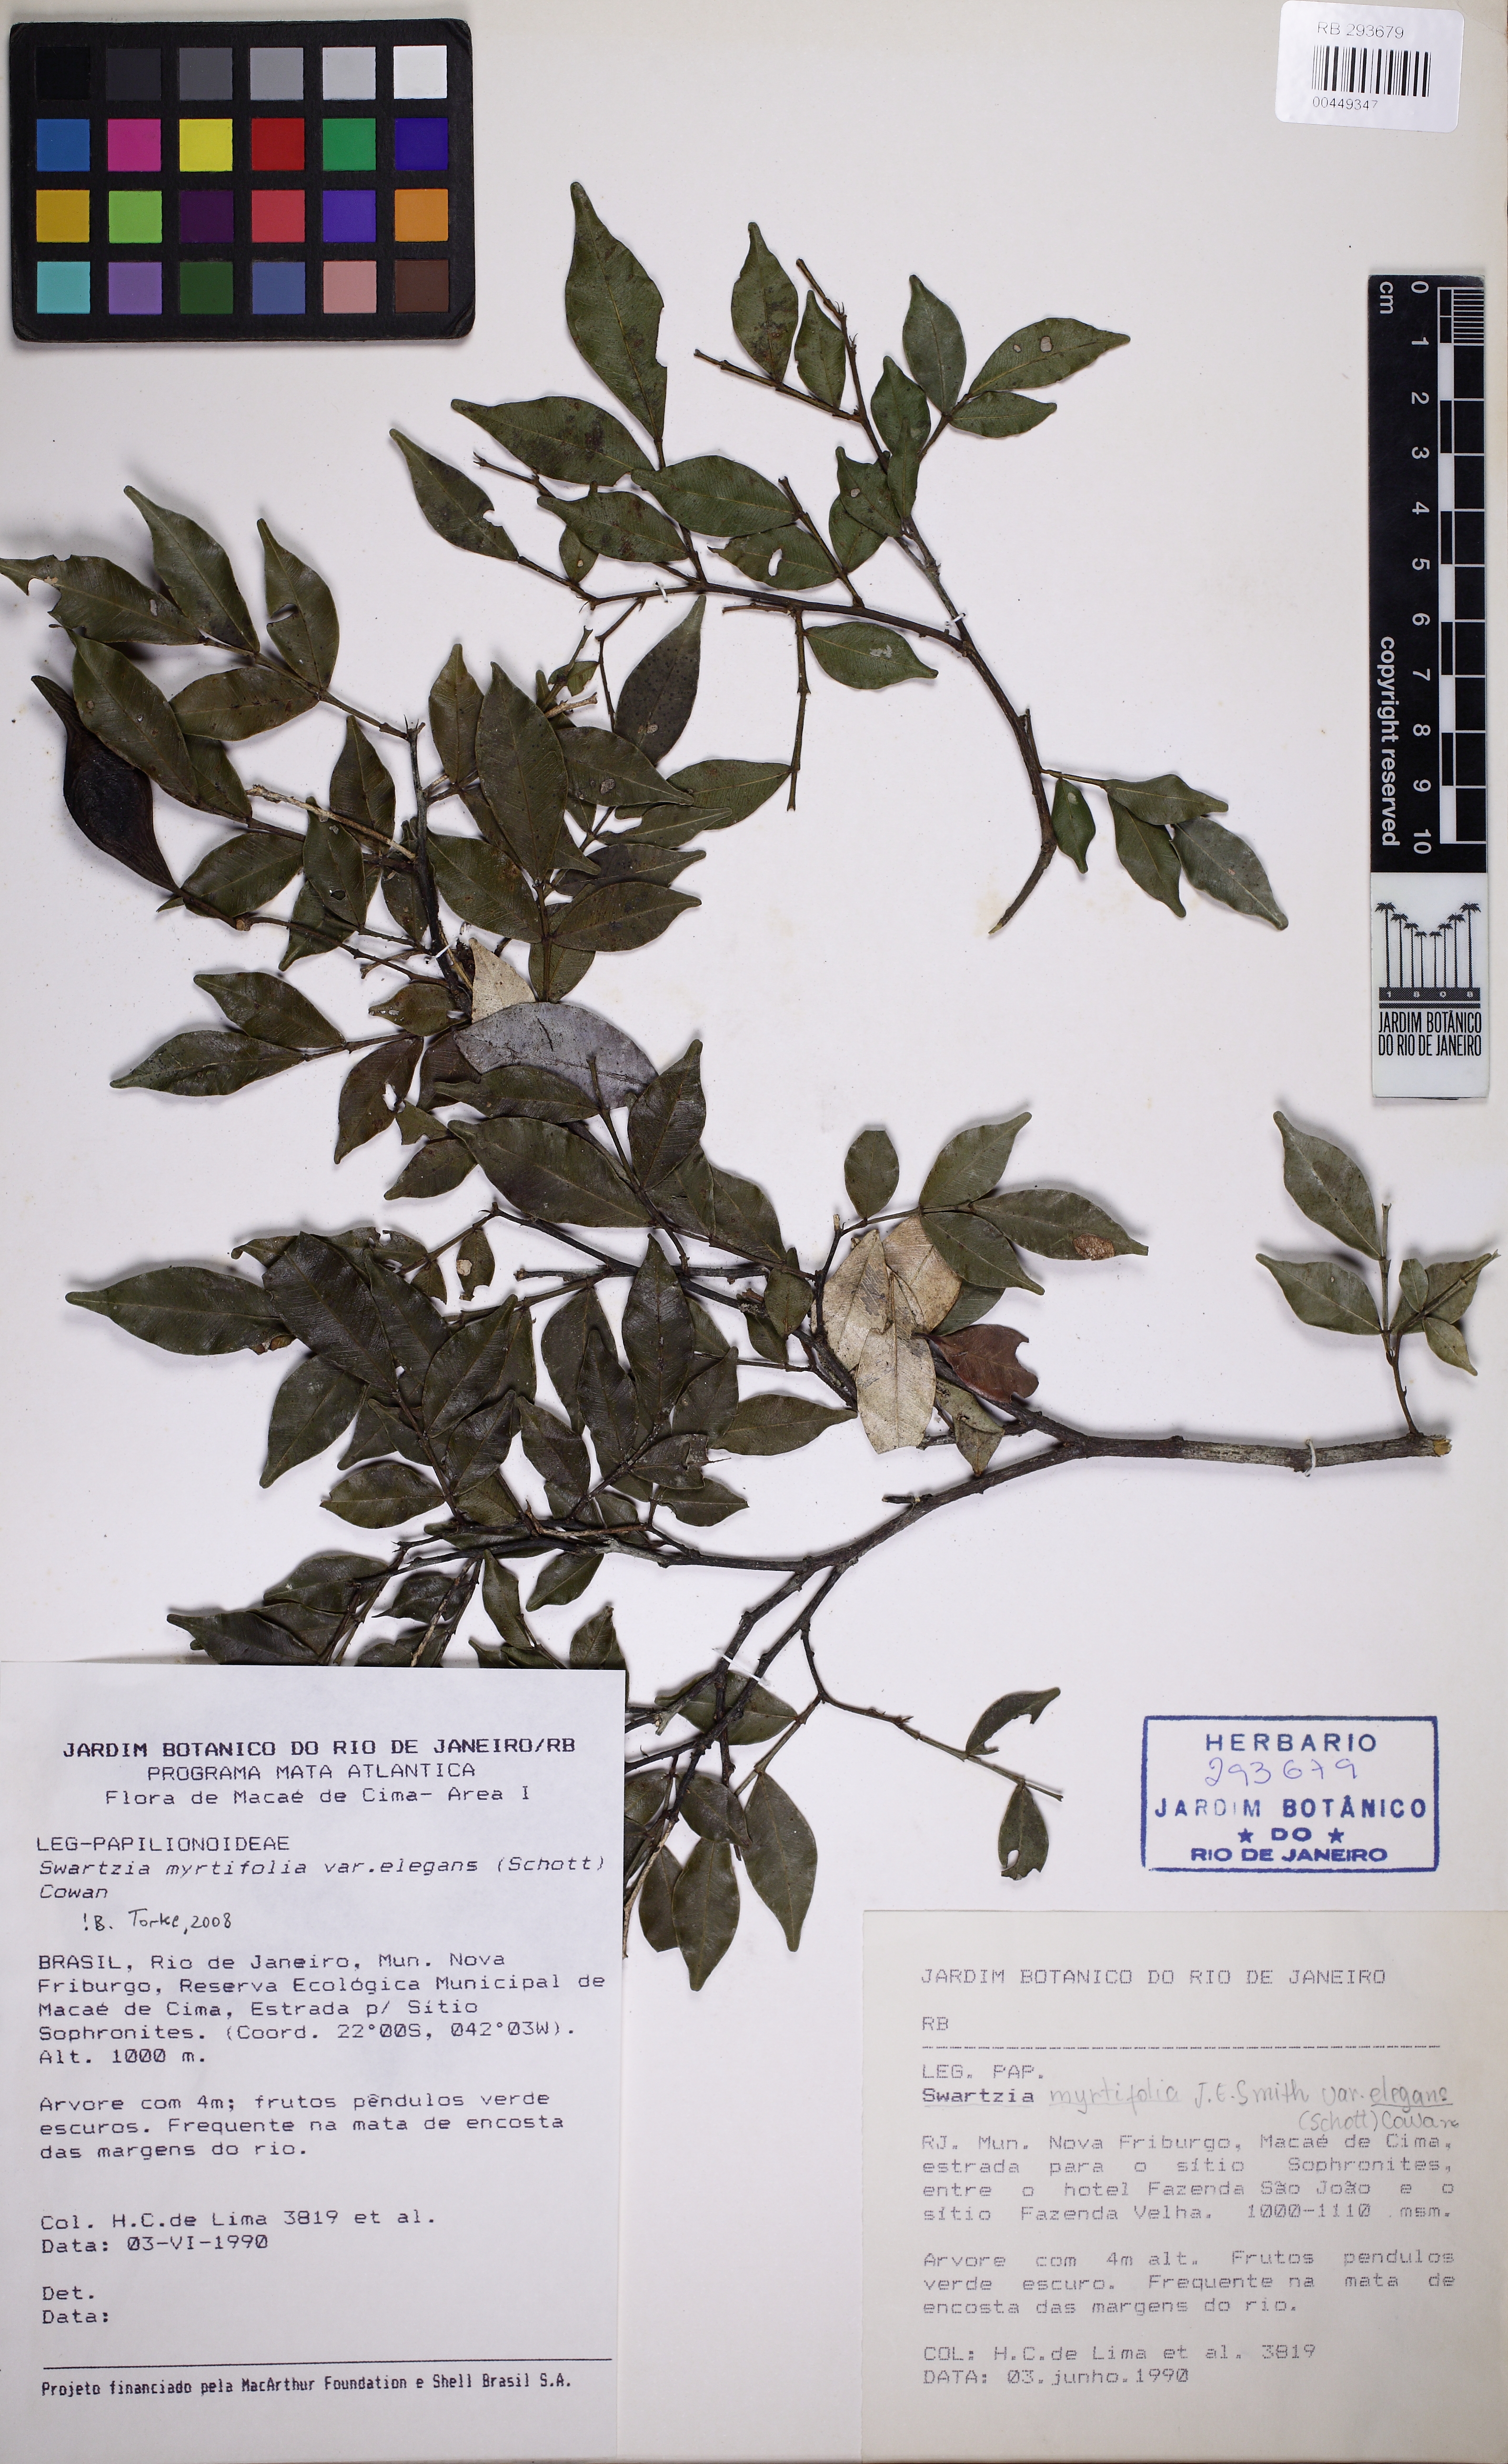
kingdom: Plantae
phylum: Tracheophyta
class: Magnoliopsida
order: Fabales
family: Fabaceae
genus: Swartzia
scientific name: Swartzia myrtifolia
